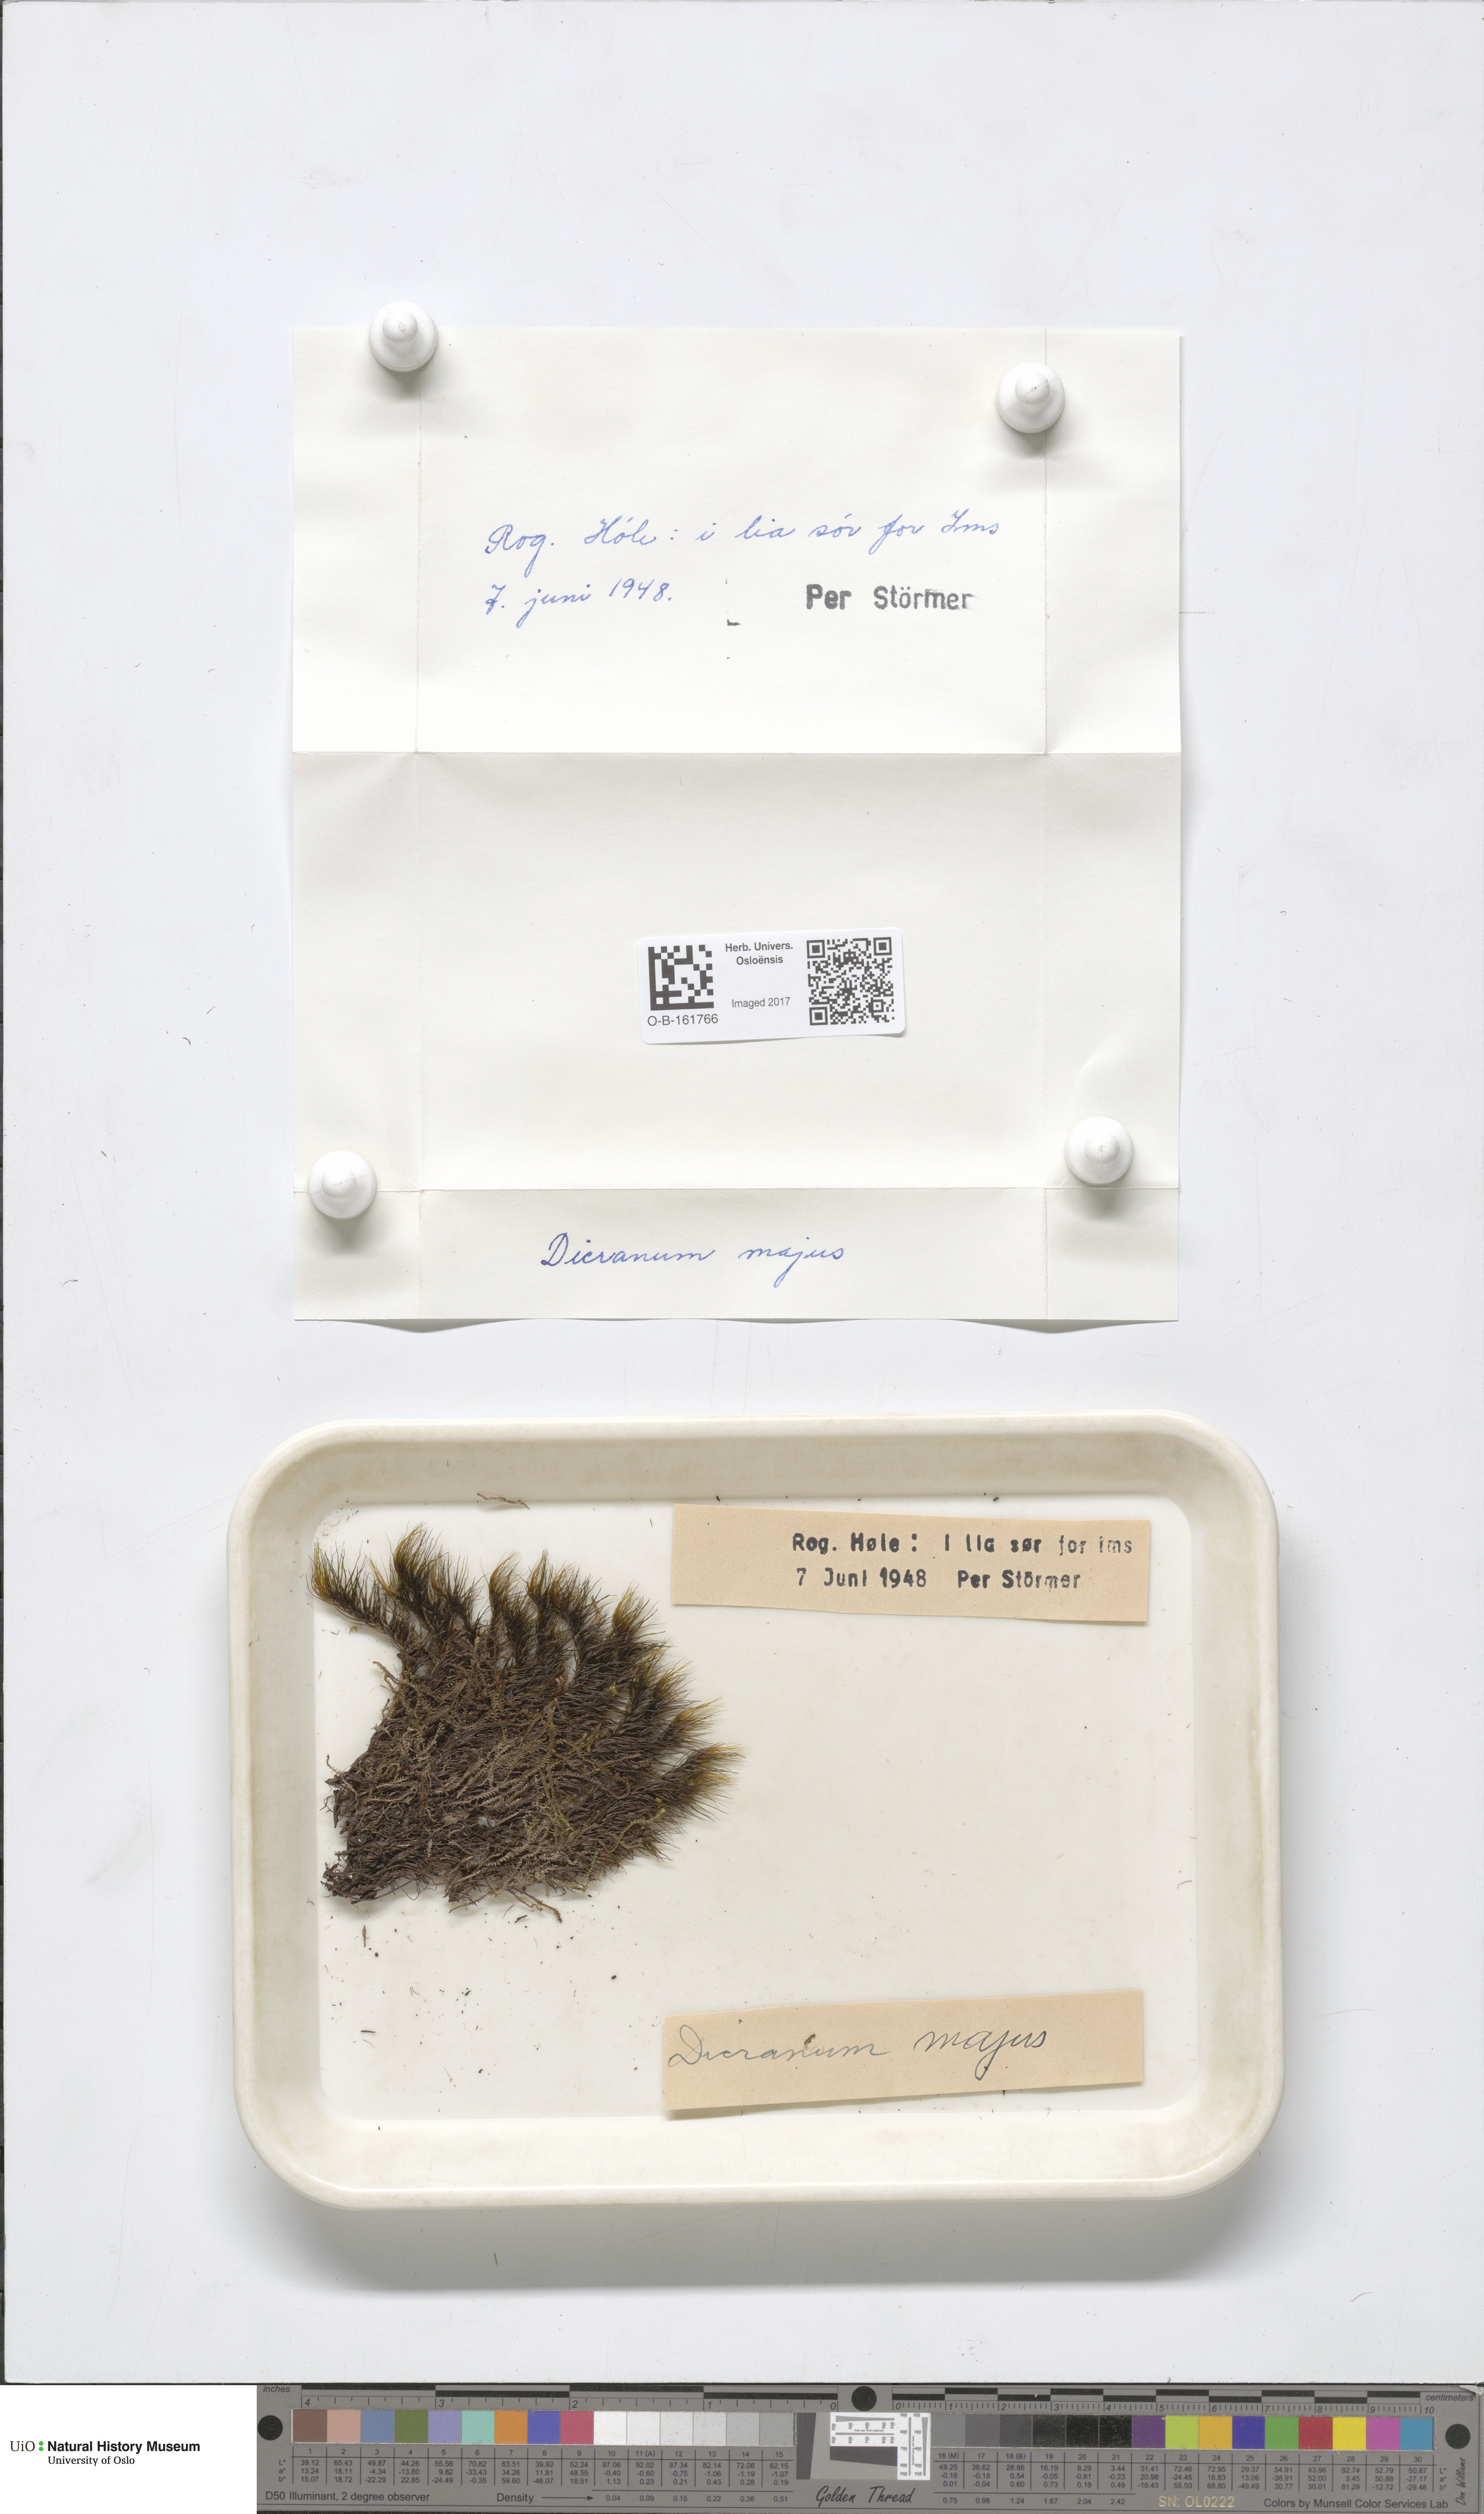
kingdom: Plantae
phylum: Bryophyta
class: Bryopsida
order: Dicranales
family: Dicranaceae
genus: Dicranum
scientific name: Dicranum majus
